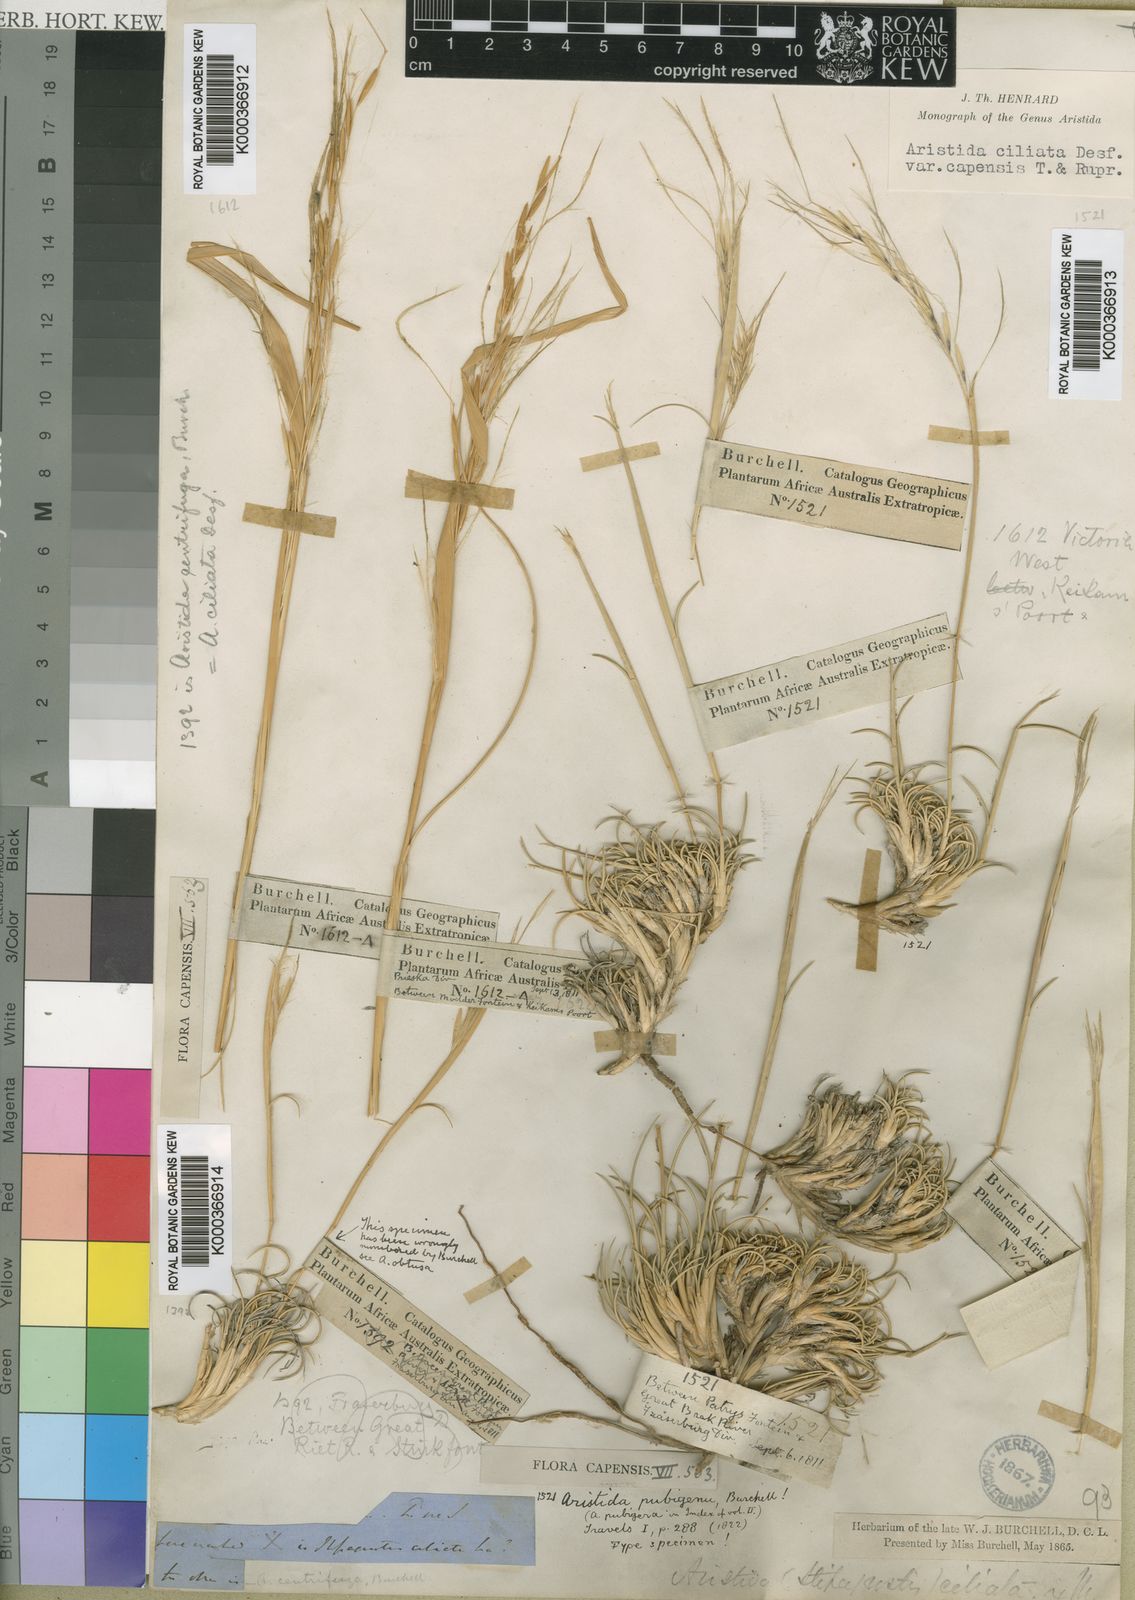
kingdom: Plantae
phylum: Tracheophyta
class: Liliopsida
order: Poales
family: Poaceae
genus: Stipagrostis
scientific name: Stipagrostis ciliata
